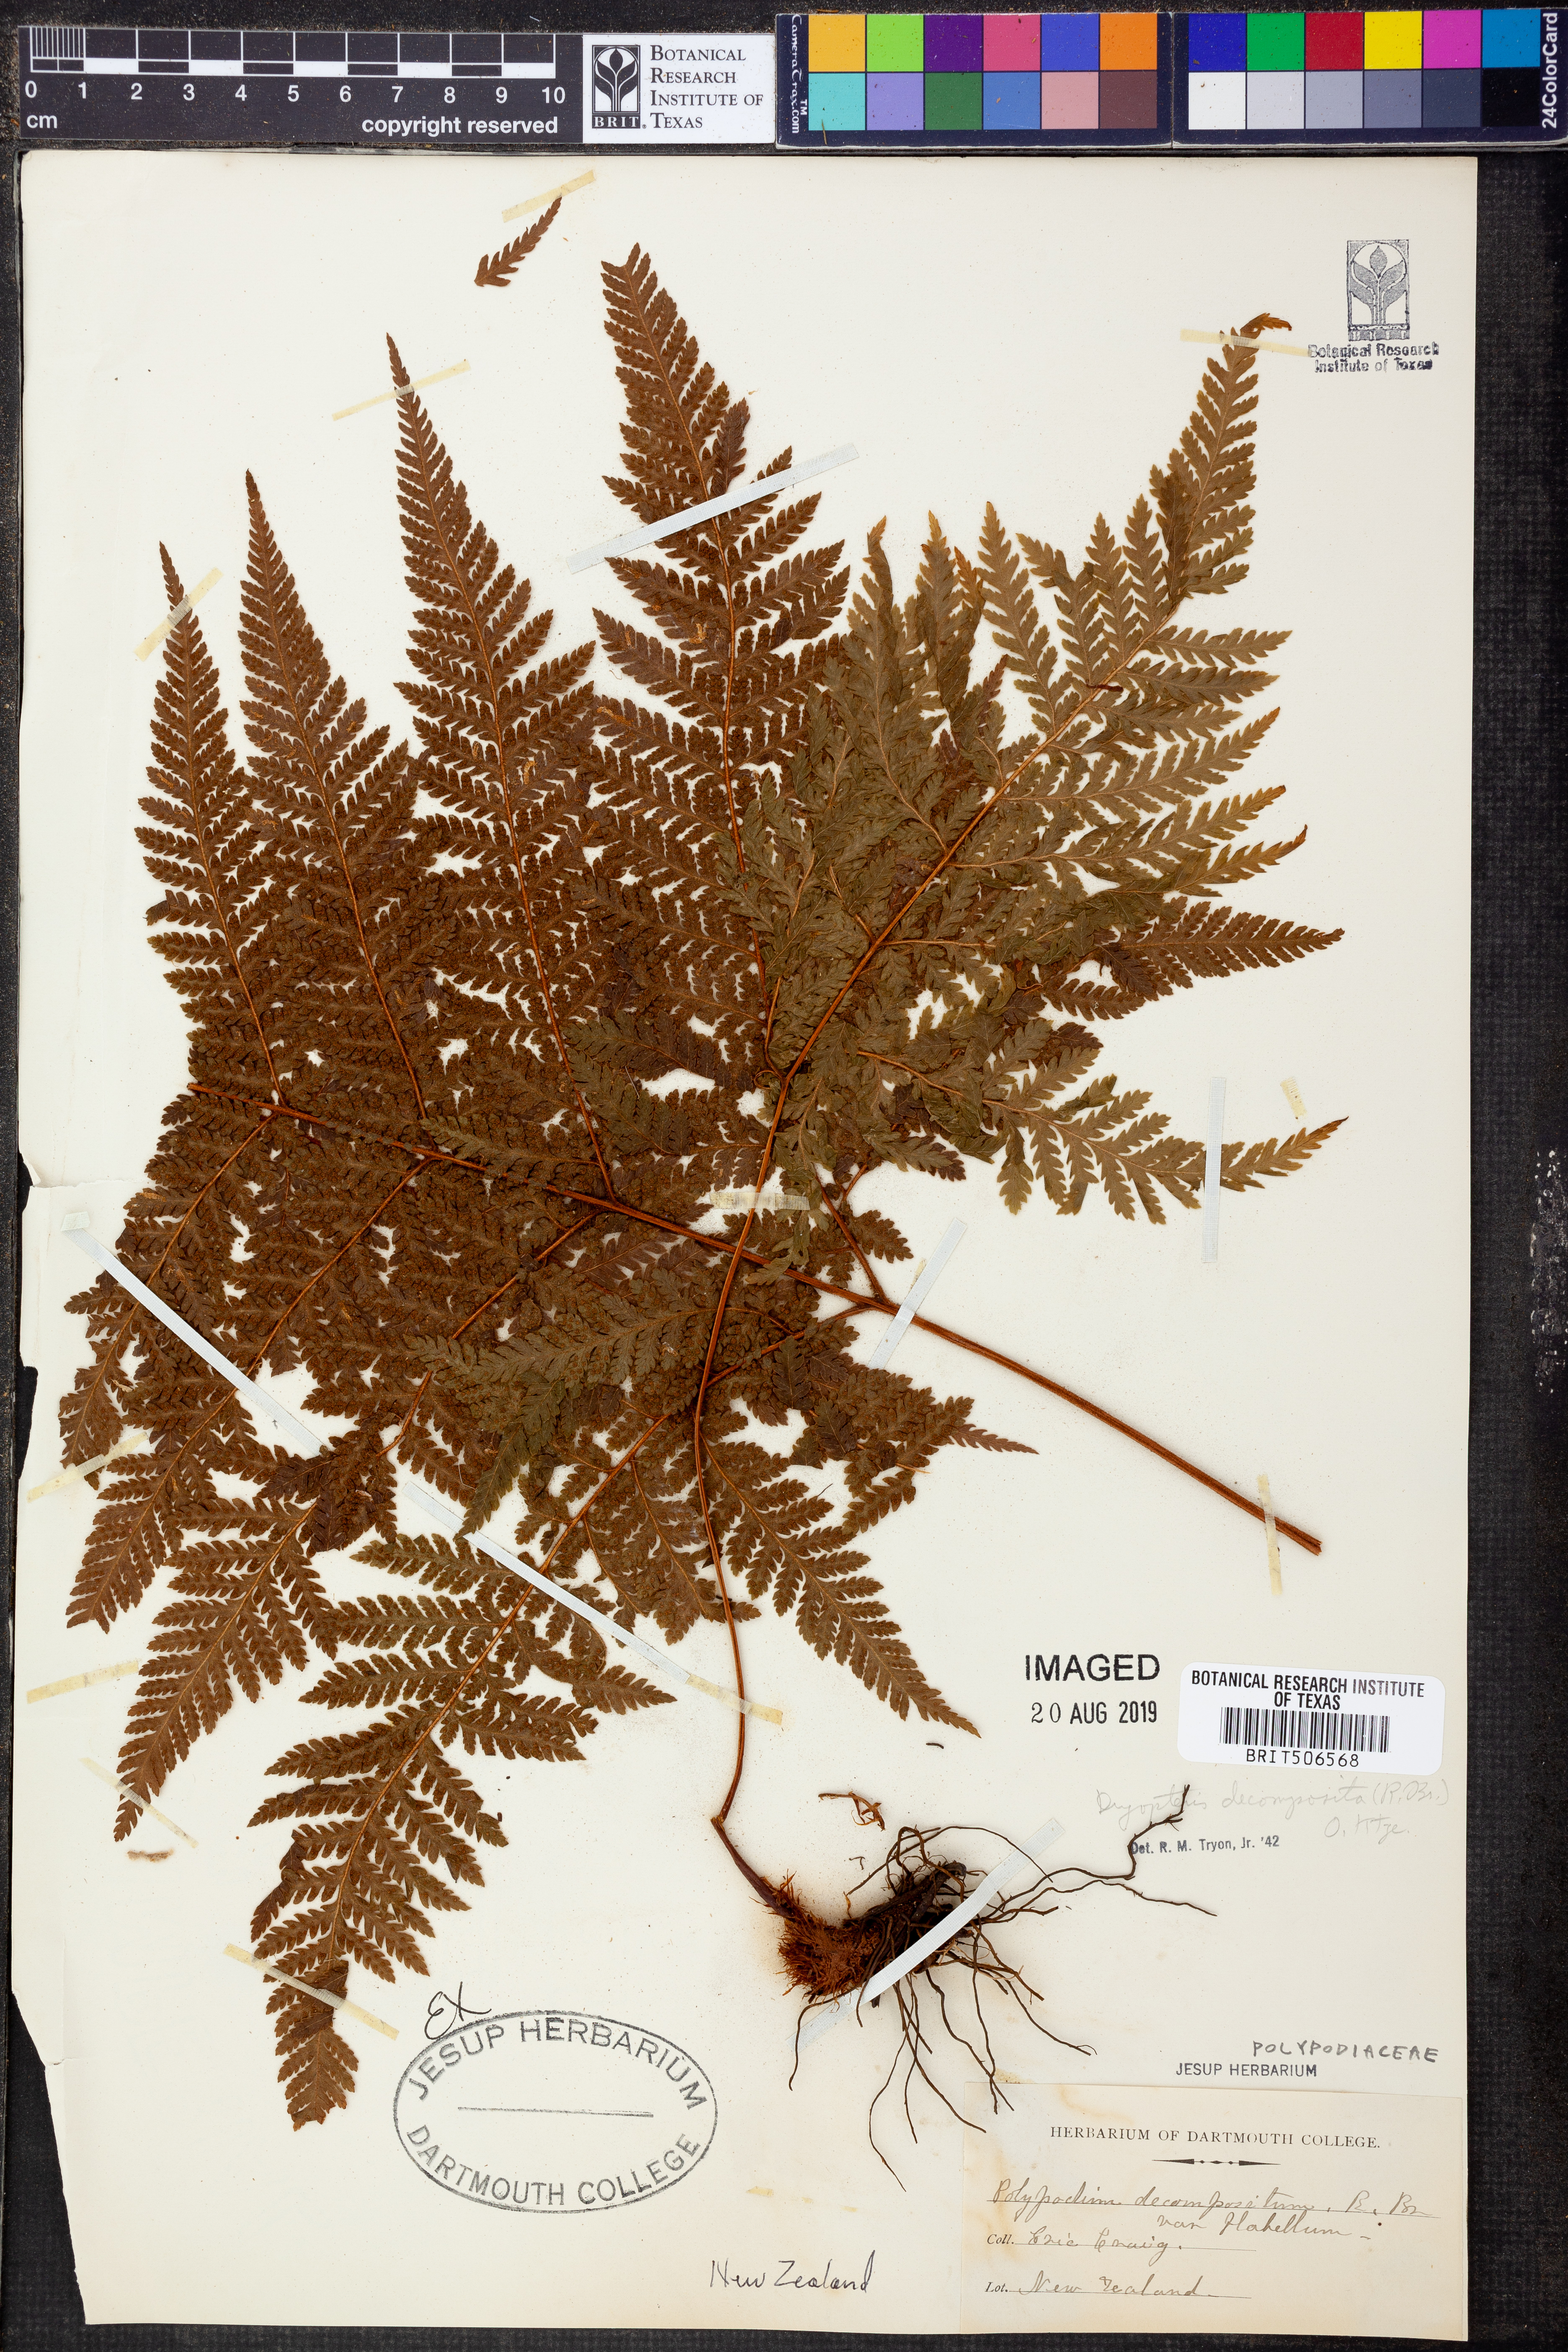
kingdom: Plantae
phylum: Tracheophyta
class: Polypodiopsida
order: Polypodiales
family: Dryopteridaceae
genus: Lastreopsis
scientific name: Lastreopsis decomposita
